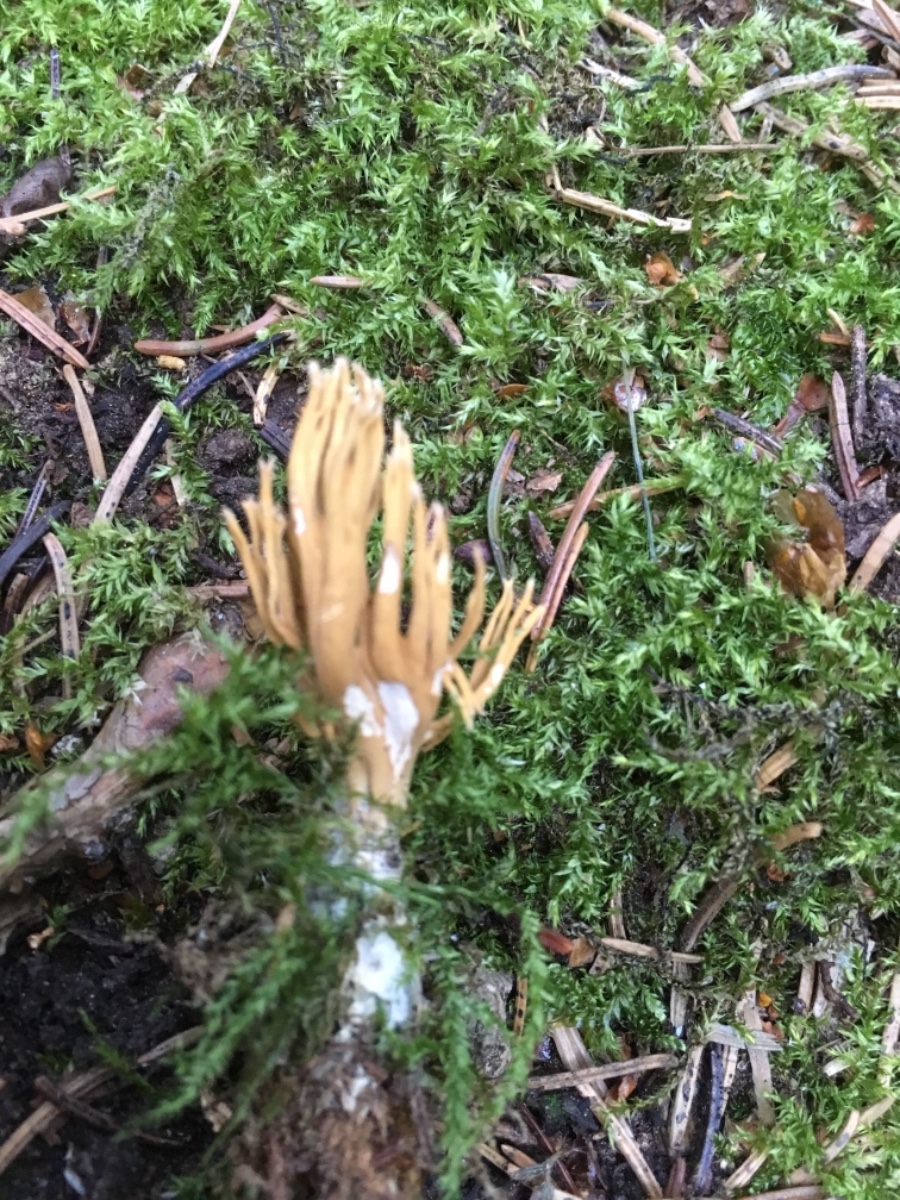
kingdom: Fungi
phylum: Basidiomycota
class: Agaricomycetes
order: Gomphales
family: Gomphaceae
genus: Phaeoclavulina
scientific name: Phaeoclavulina eumorpha
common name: gran-koralsvamp
